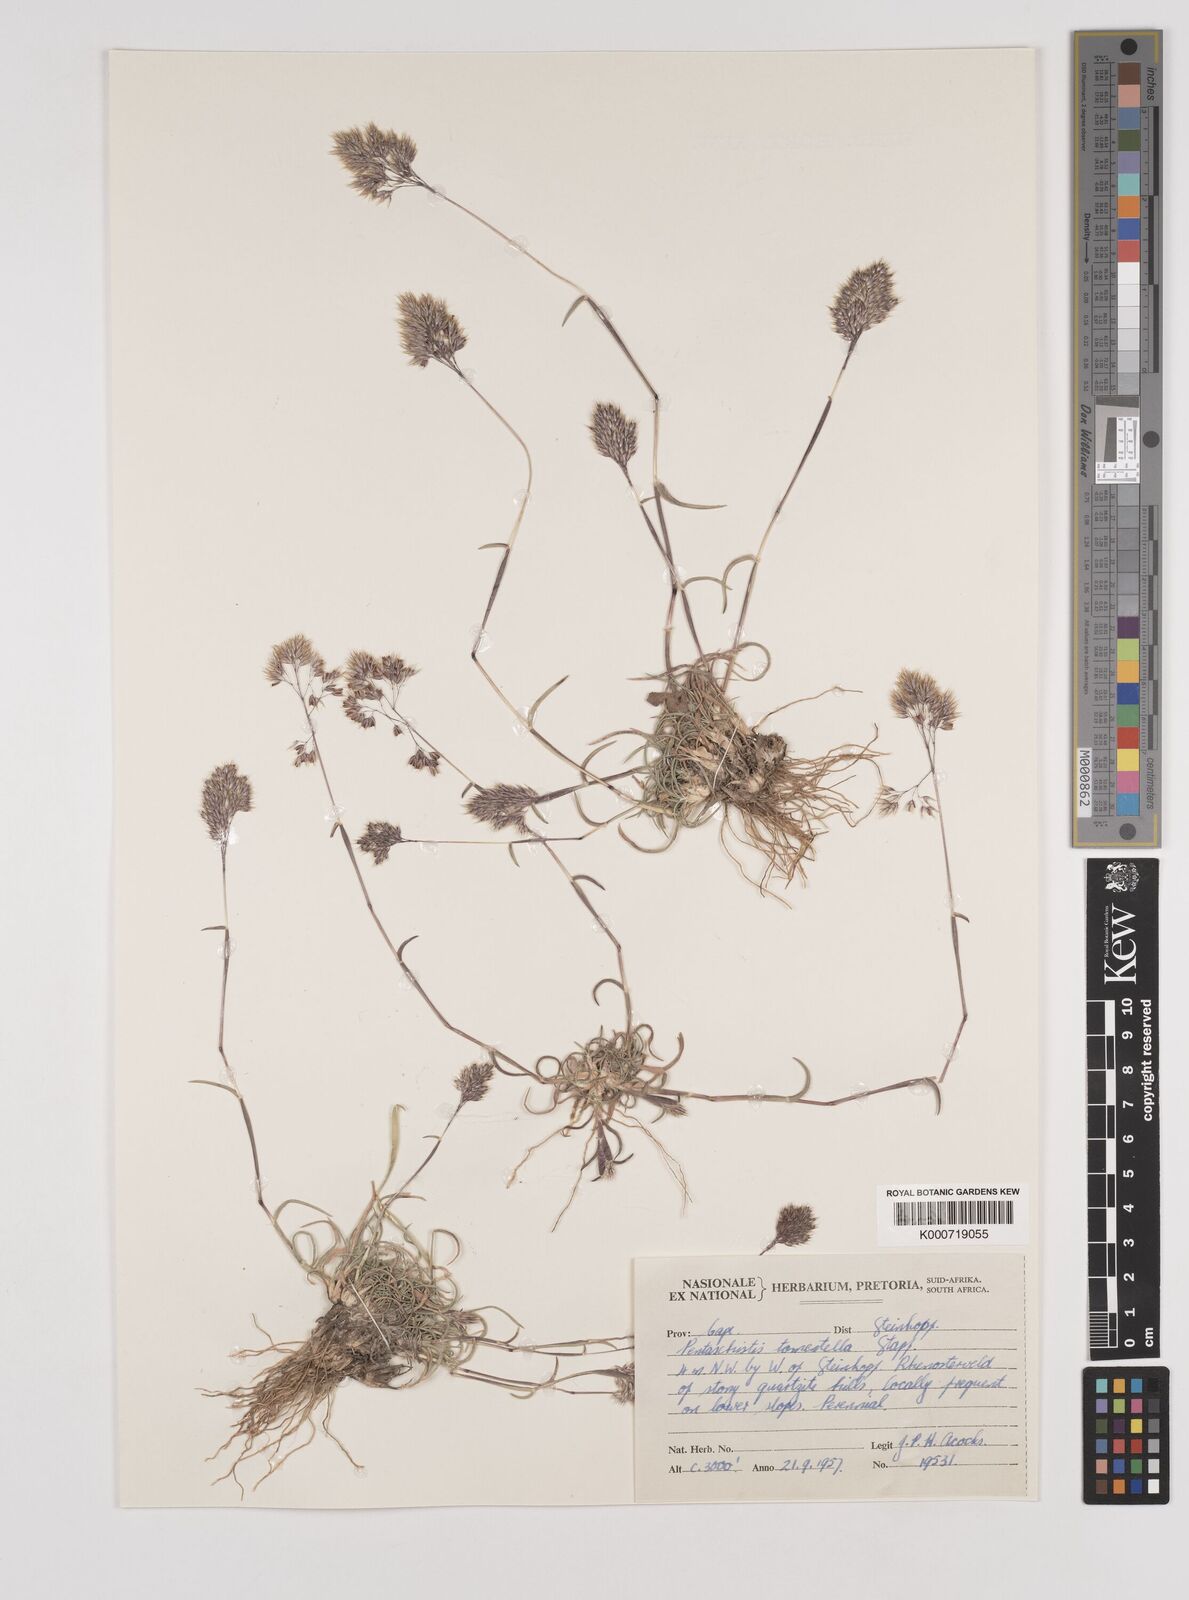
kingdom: Plantae
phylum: Tracheophyta
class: Liliopsida
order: Poales
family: Poaceae
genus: Pentameris
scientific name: Pentameris tomentella
